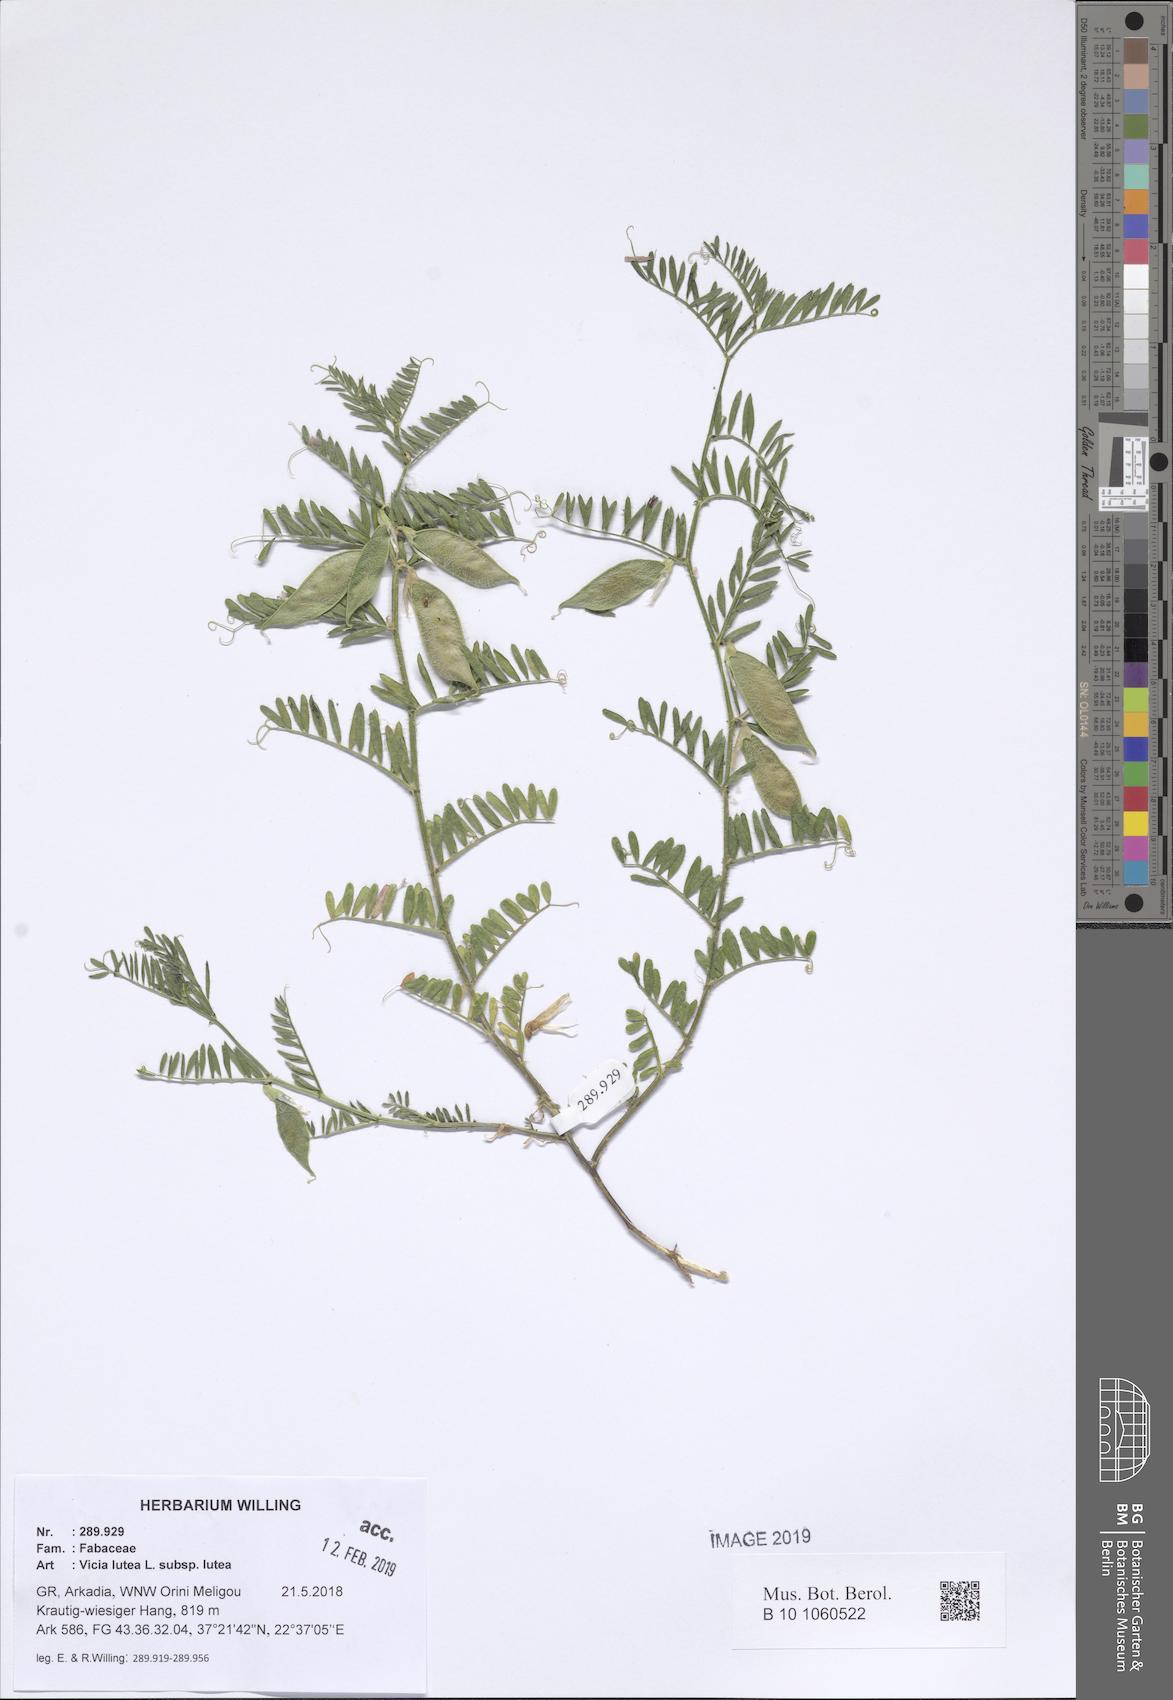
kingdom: Plantae
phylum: Tracheophyta
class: Magnoliopsida
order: Fabales
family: Fabaceae
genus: Vicia
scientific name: Vicia lutea
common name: Smooth yellow vetch
